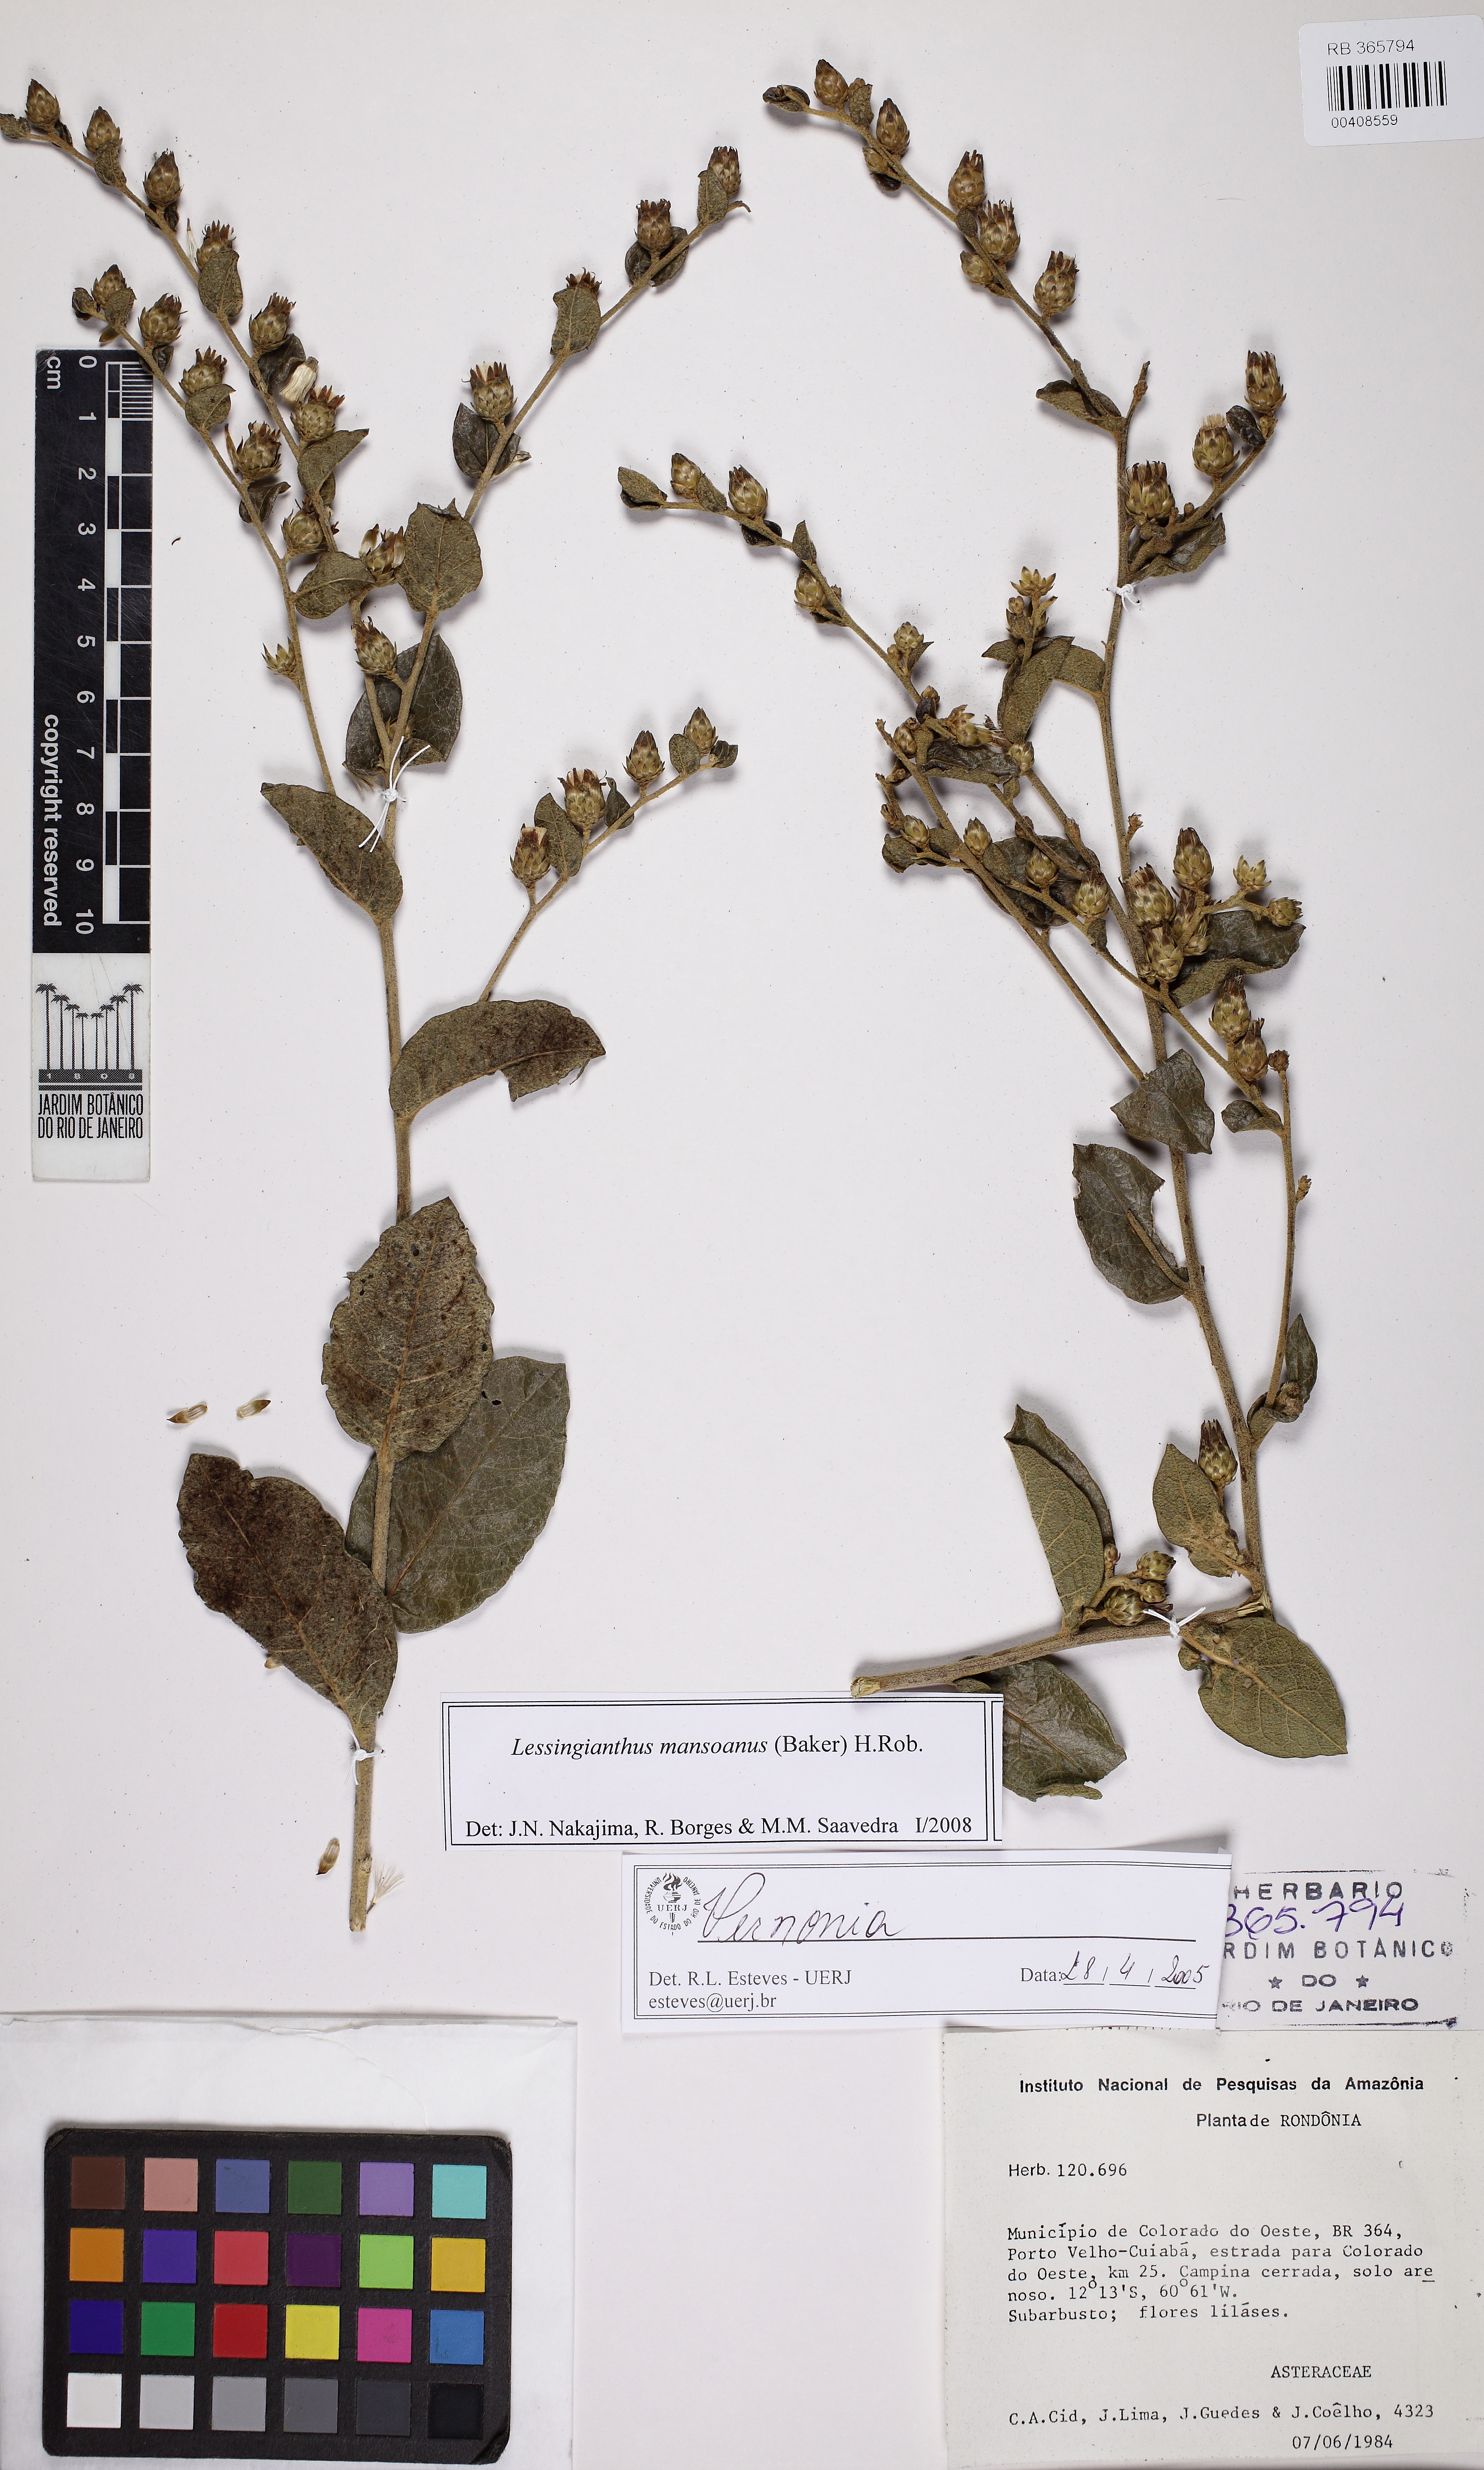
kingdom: Plantae
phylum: Tracheophyta
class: Magnoliopsida
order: Asterales
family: Asteraceae
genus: Lessingianthus
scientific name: Lessingianthus mansoanus
